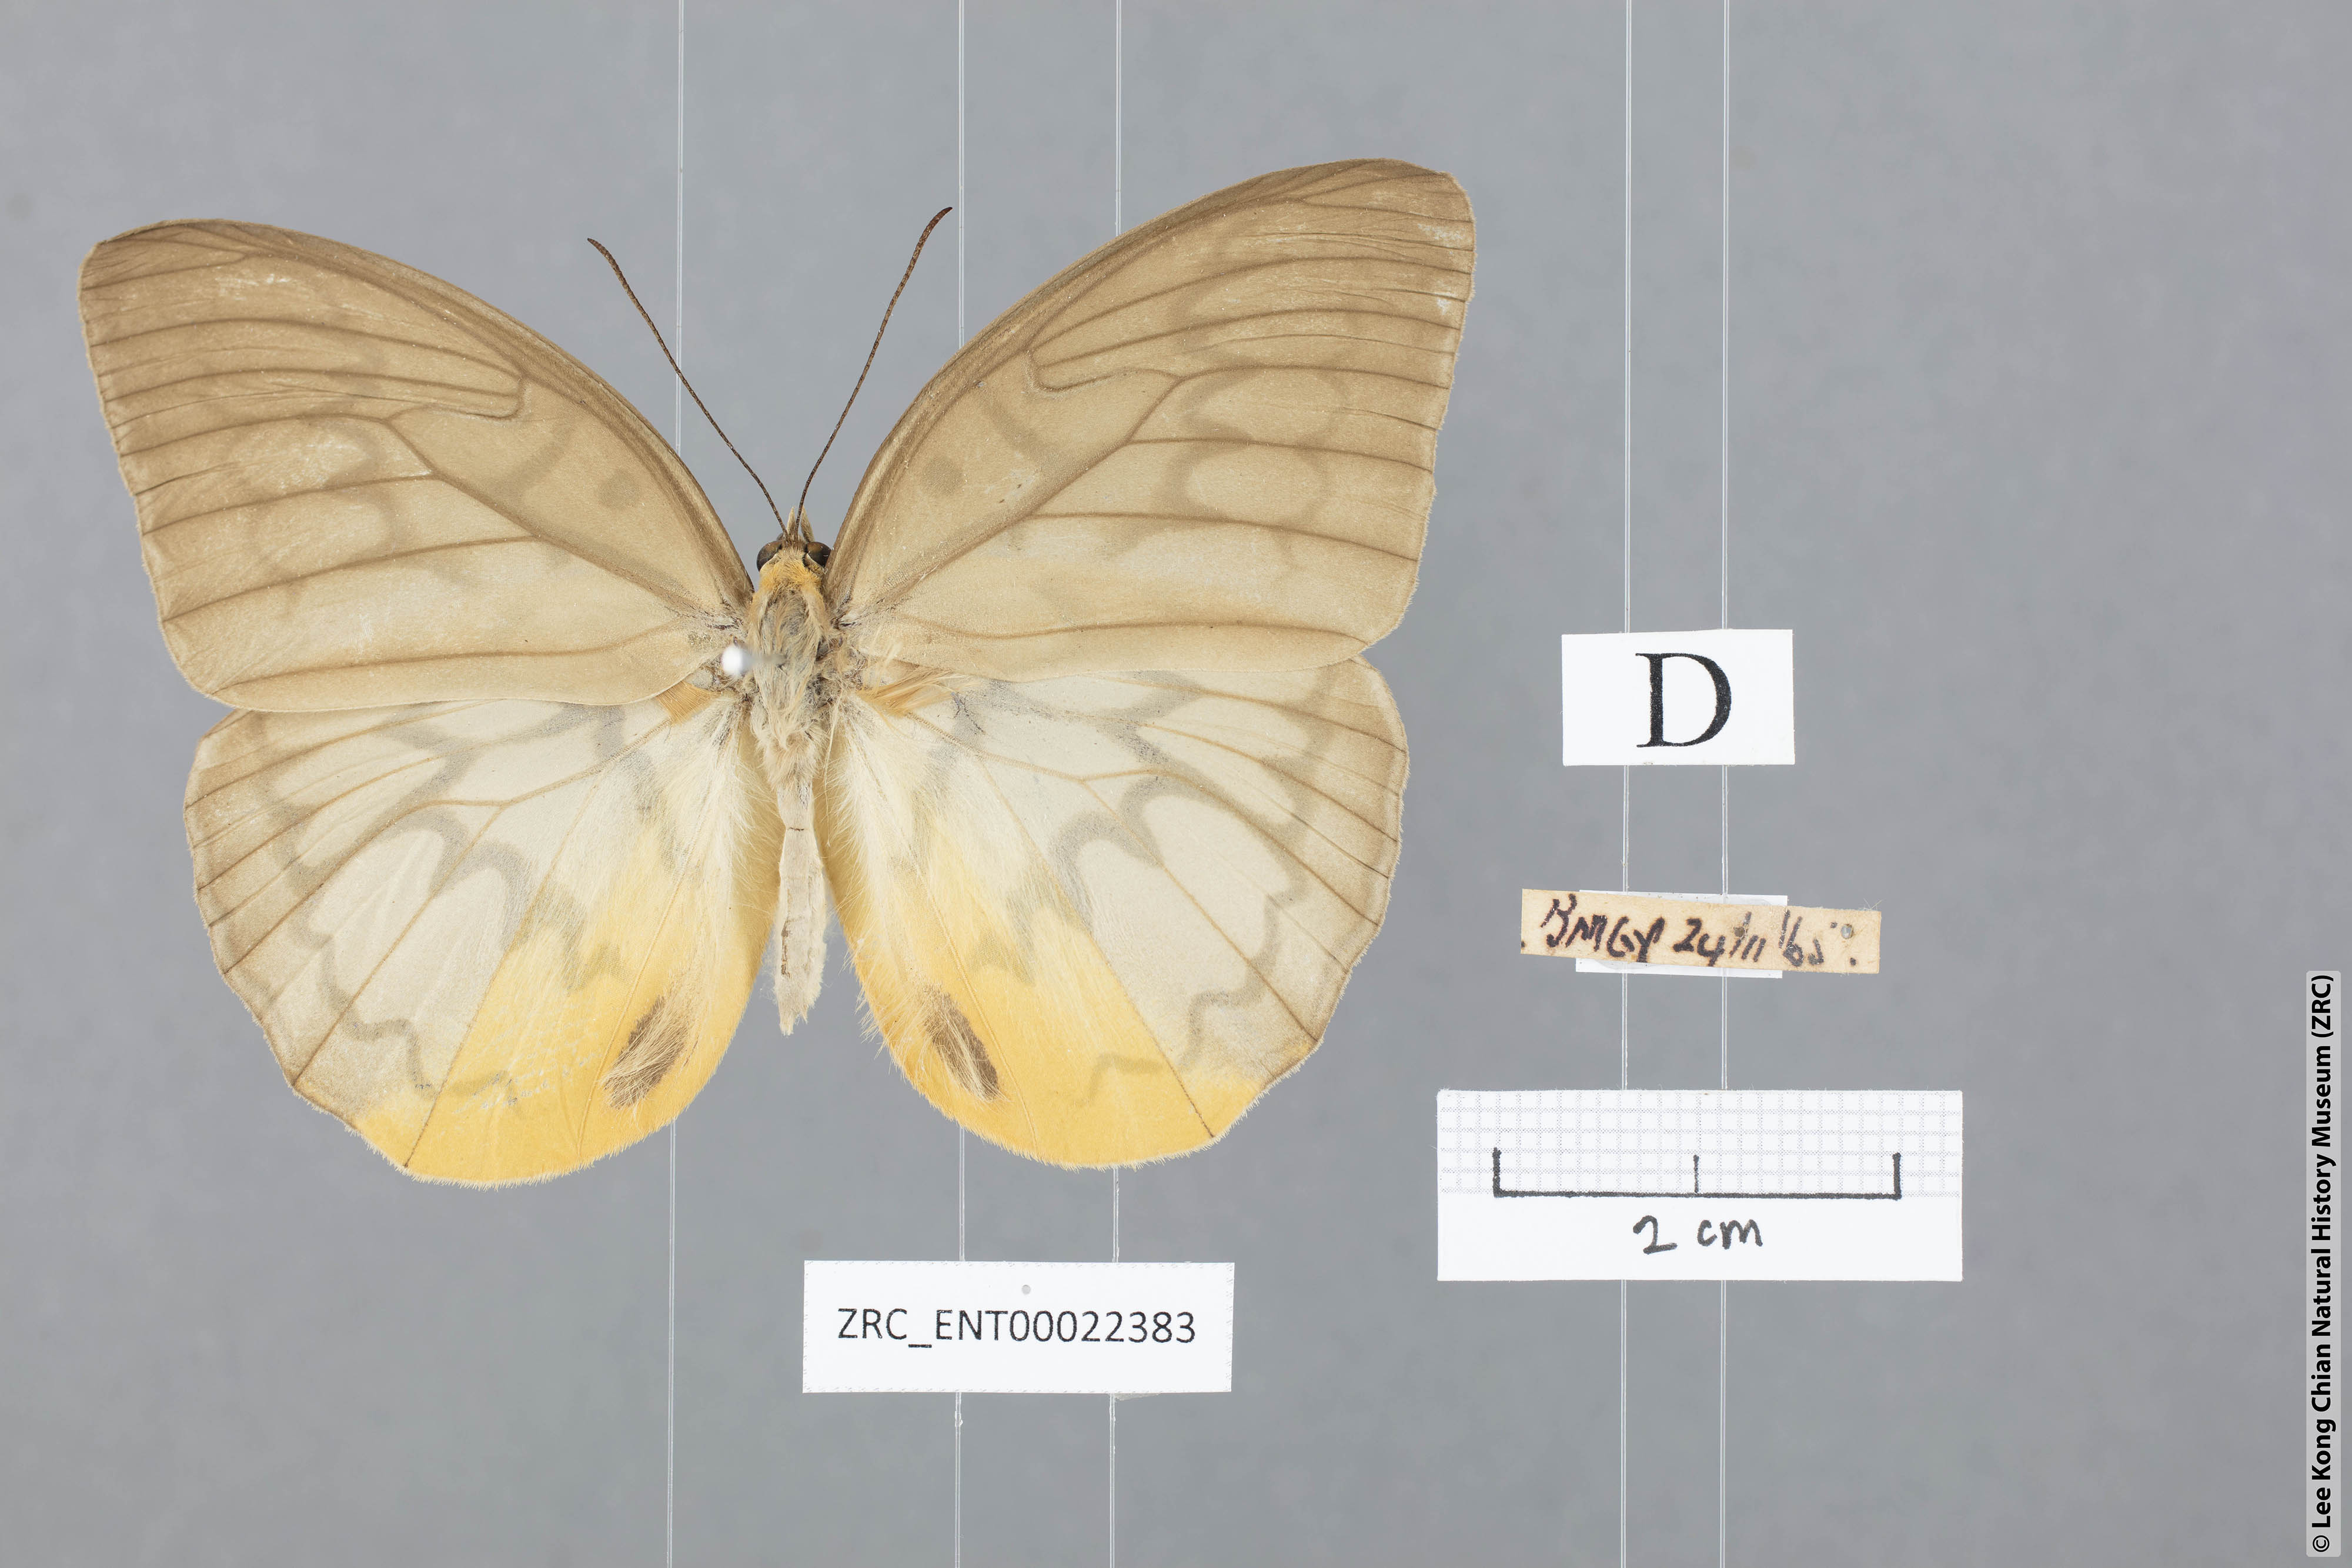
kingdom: Animalia
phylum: Arthropoda
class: Insecta
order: Lepidoptera
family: Nymphalidae
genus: Faunis
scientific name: Faunis Melanocyma faunula
